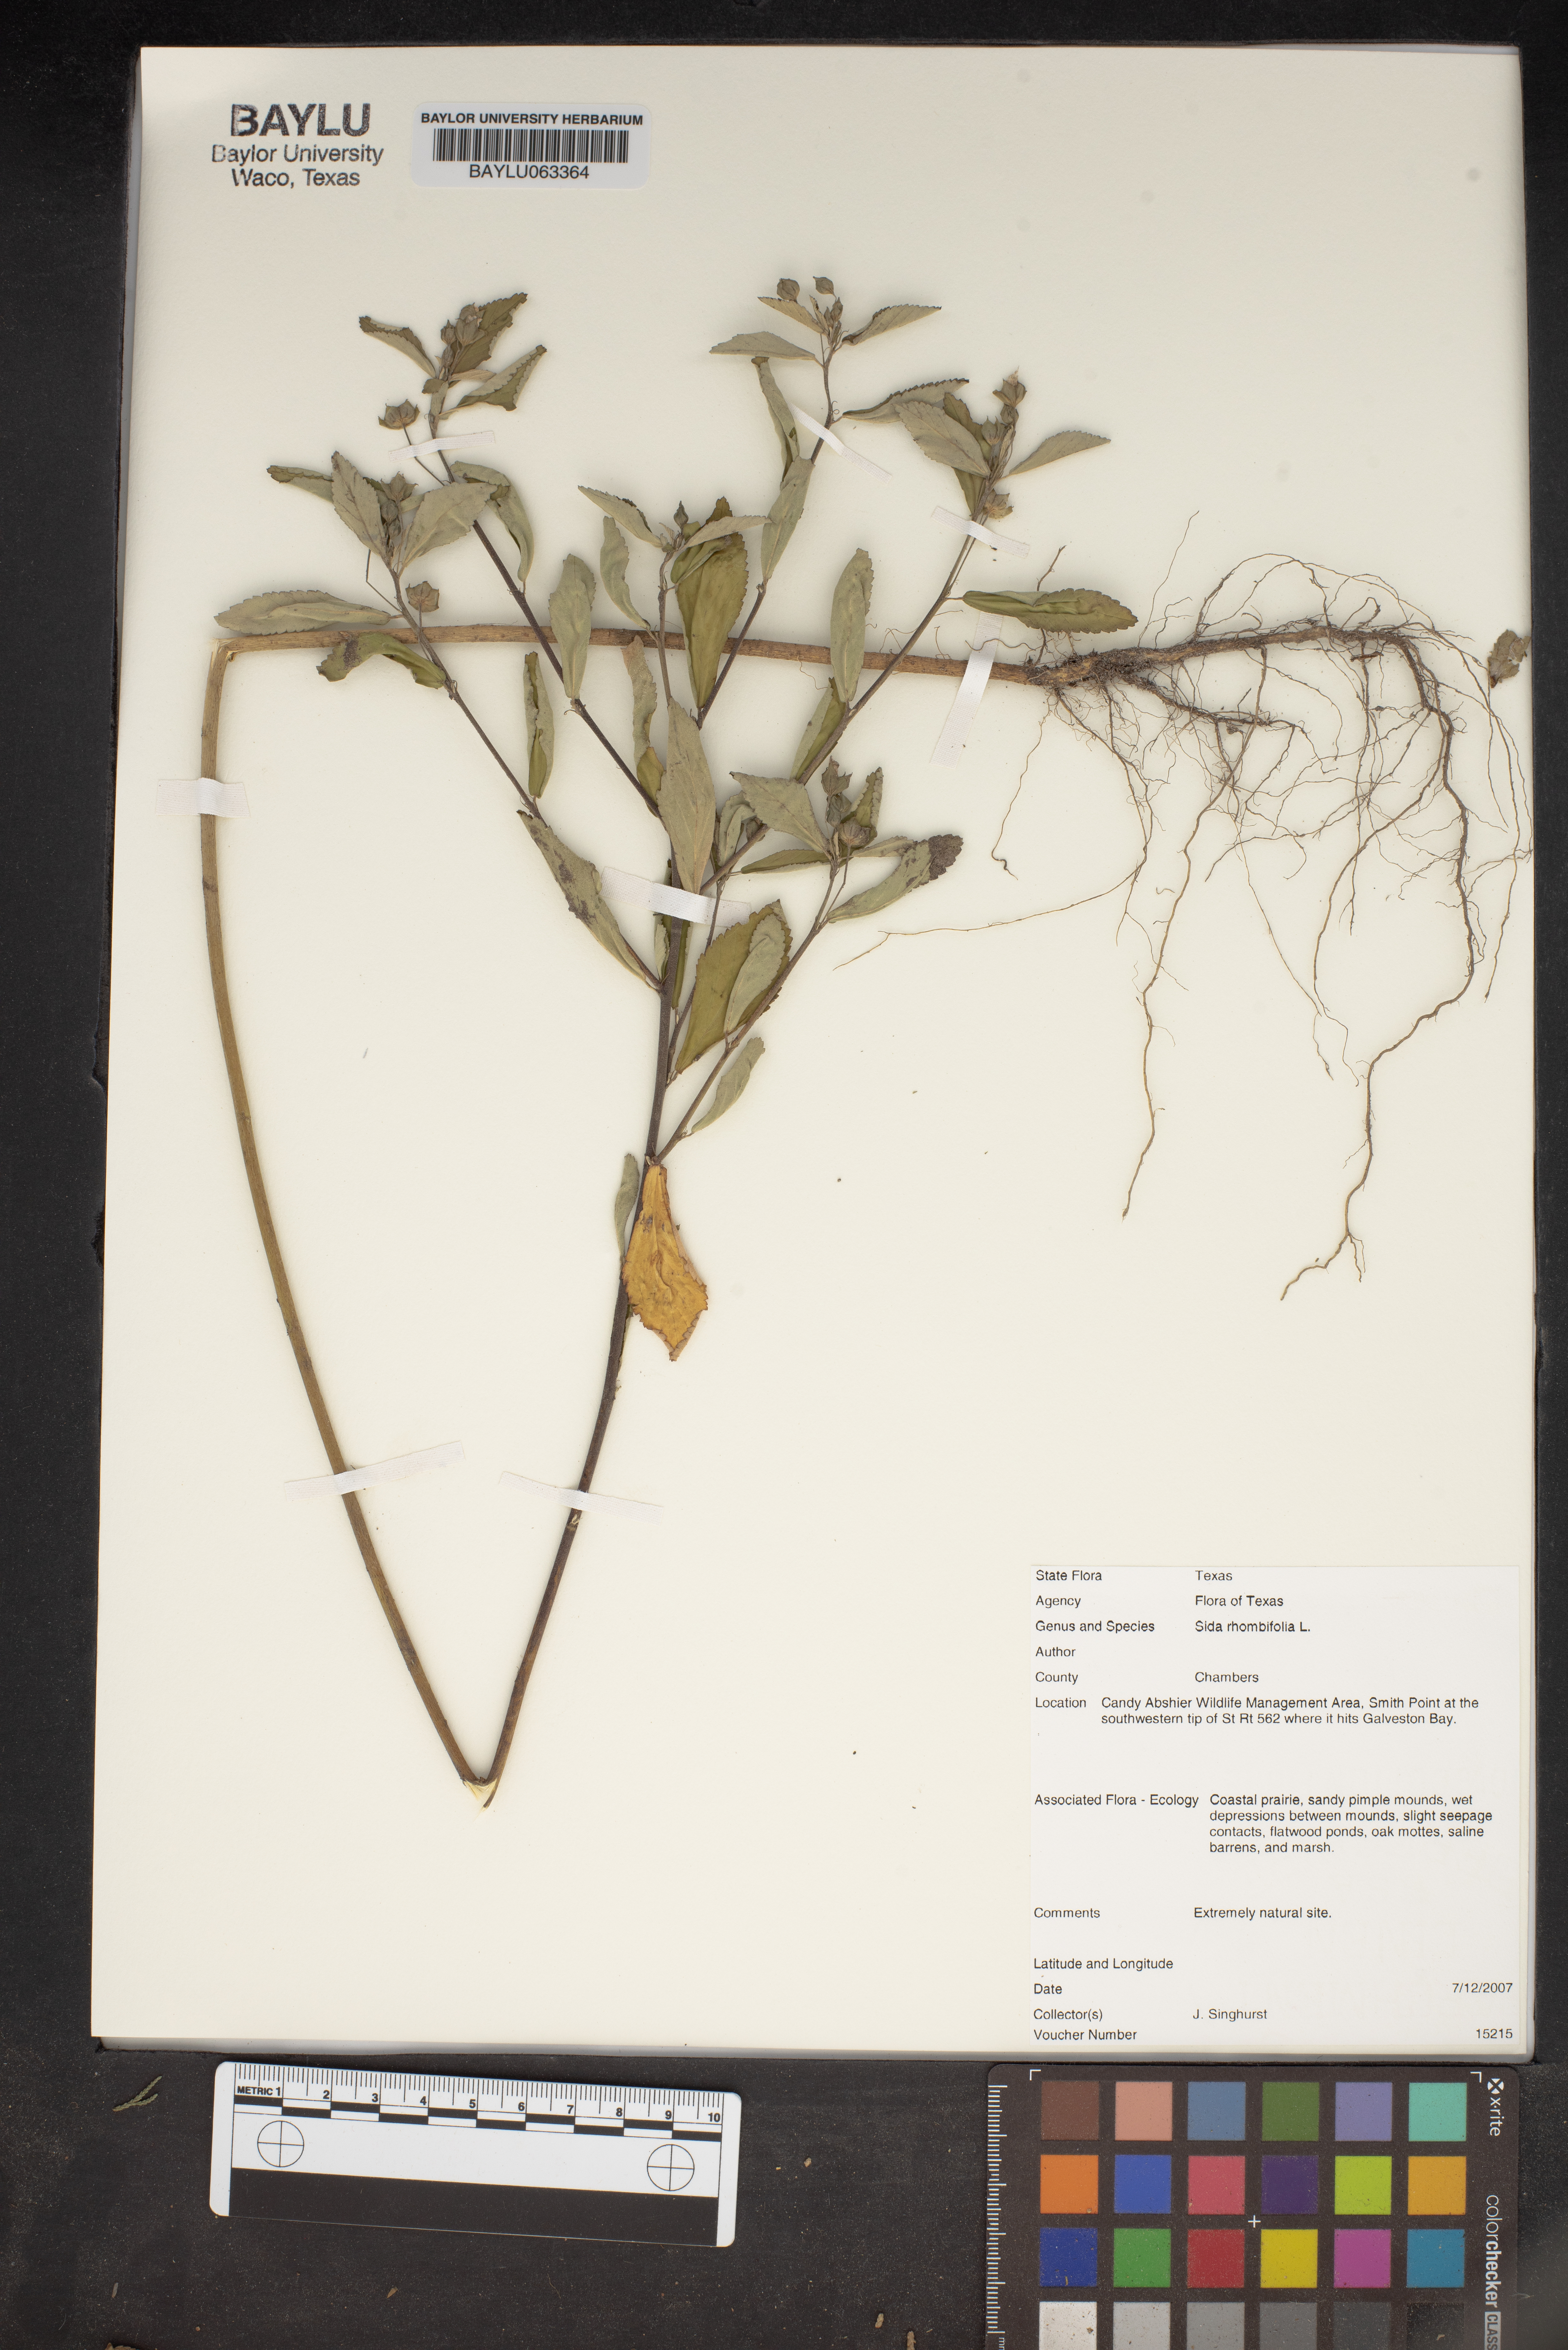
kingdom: Plantae
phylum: Tracheophyta
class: Magnoliopsida
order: Malvales
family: Malvaceae
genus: Sida
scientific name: Sida rhombifolia
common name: Queensland-hemp
